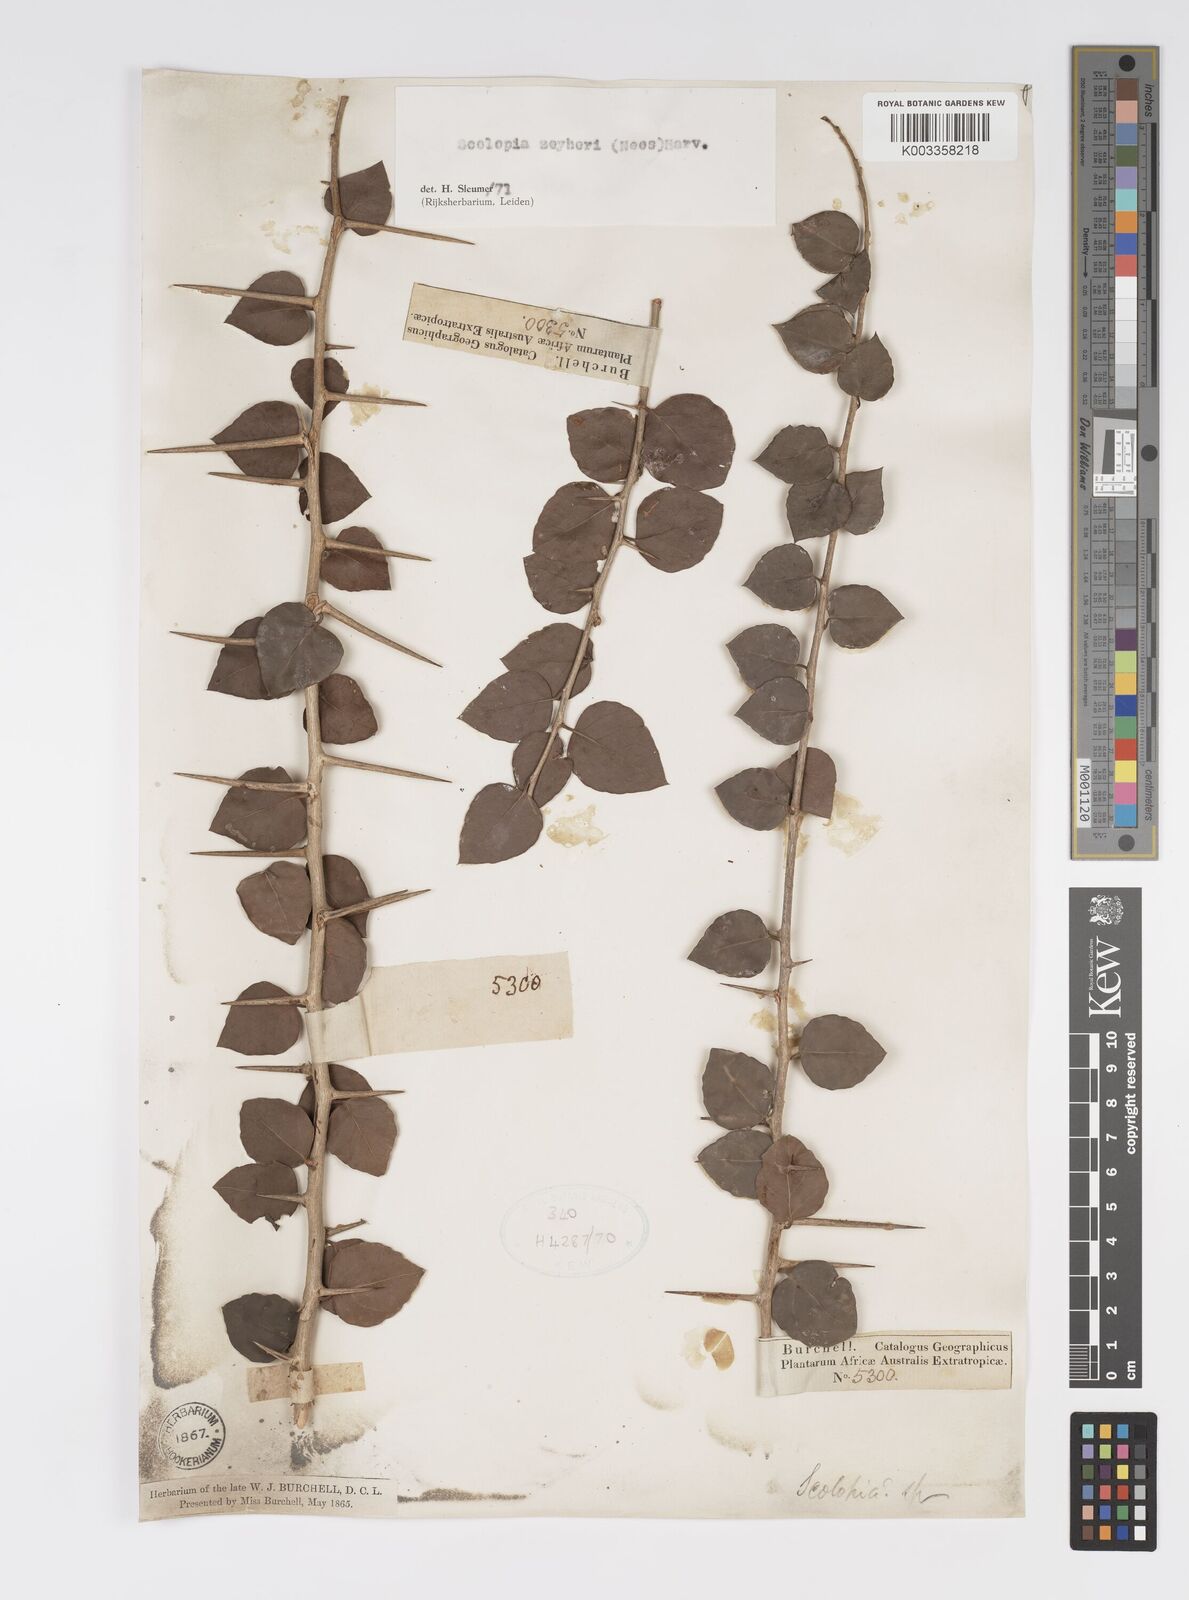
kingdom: Plantae
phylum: Tracheophyta
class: Magnoliopsida
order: Malpighiales
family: Salicaceae
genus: Scolopia
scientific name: Scolopia zeyheri
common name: Thorn pear
